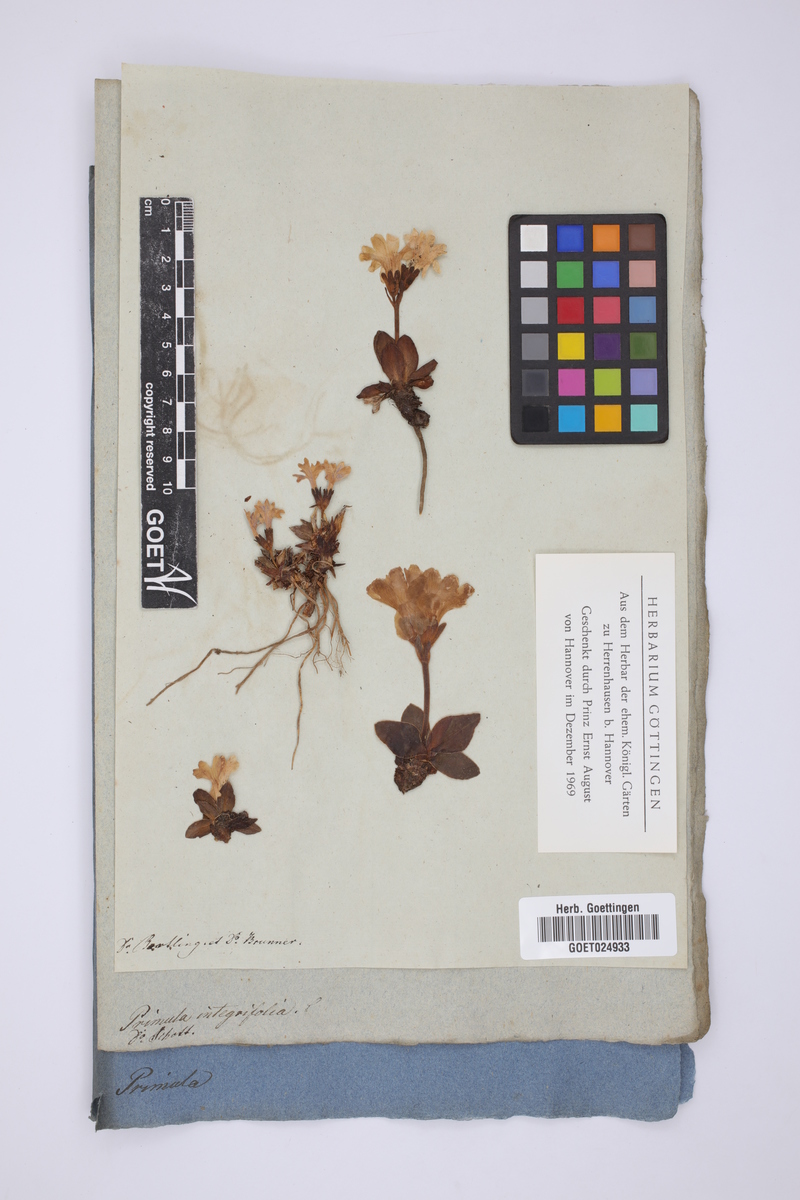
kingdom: Plantae
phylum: Tracheophyta
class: Magnoliopsida
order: Ericales
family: Primulaceae
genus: Primula
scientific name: Primula integrifolia
